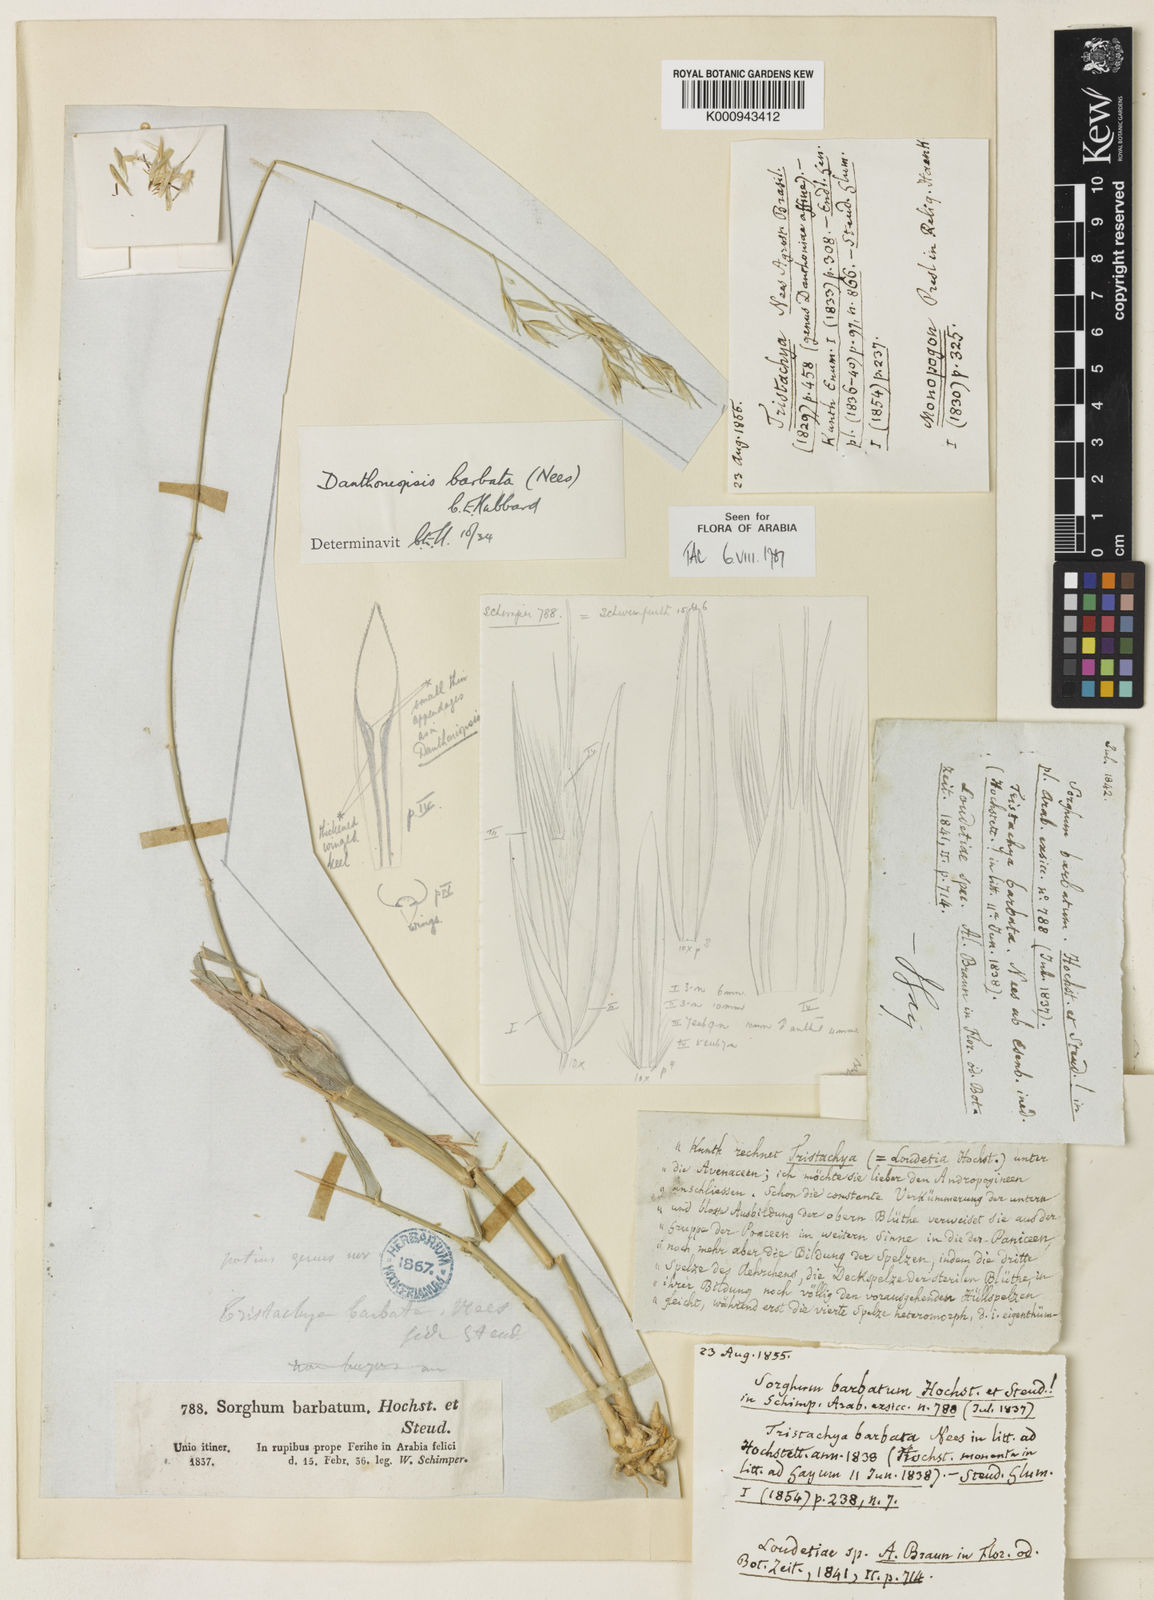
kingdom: Plantae
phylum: Tracheophyta
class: Liliopsida
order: Poales
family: Poaceae
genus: Danthoniopsis
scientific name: Danthoniopsis barbata
